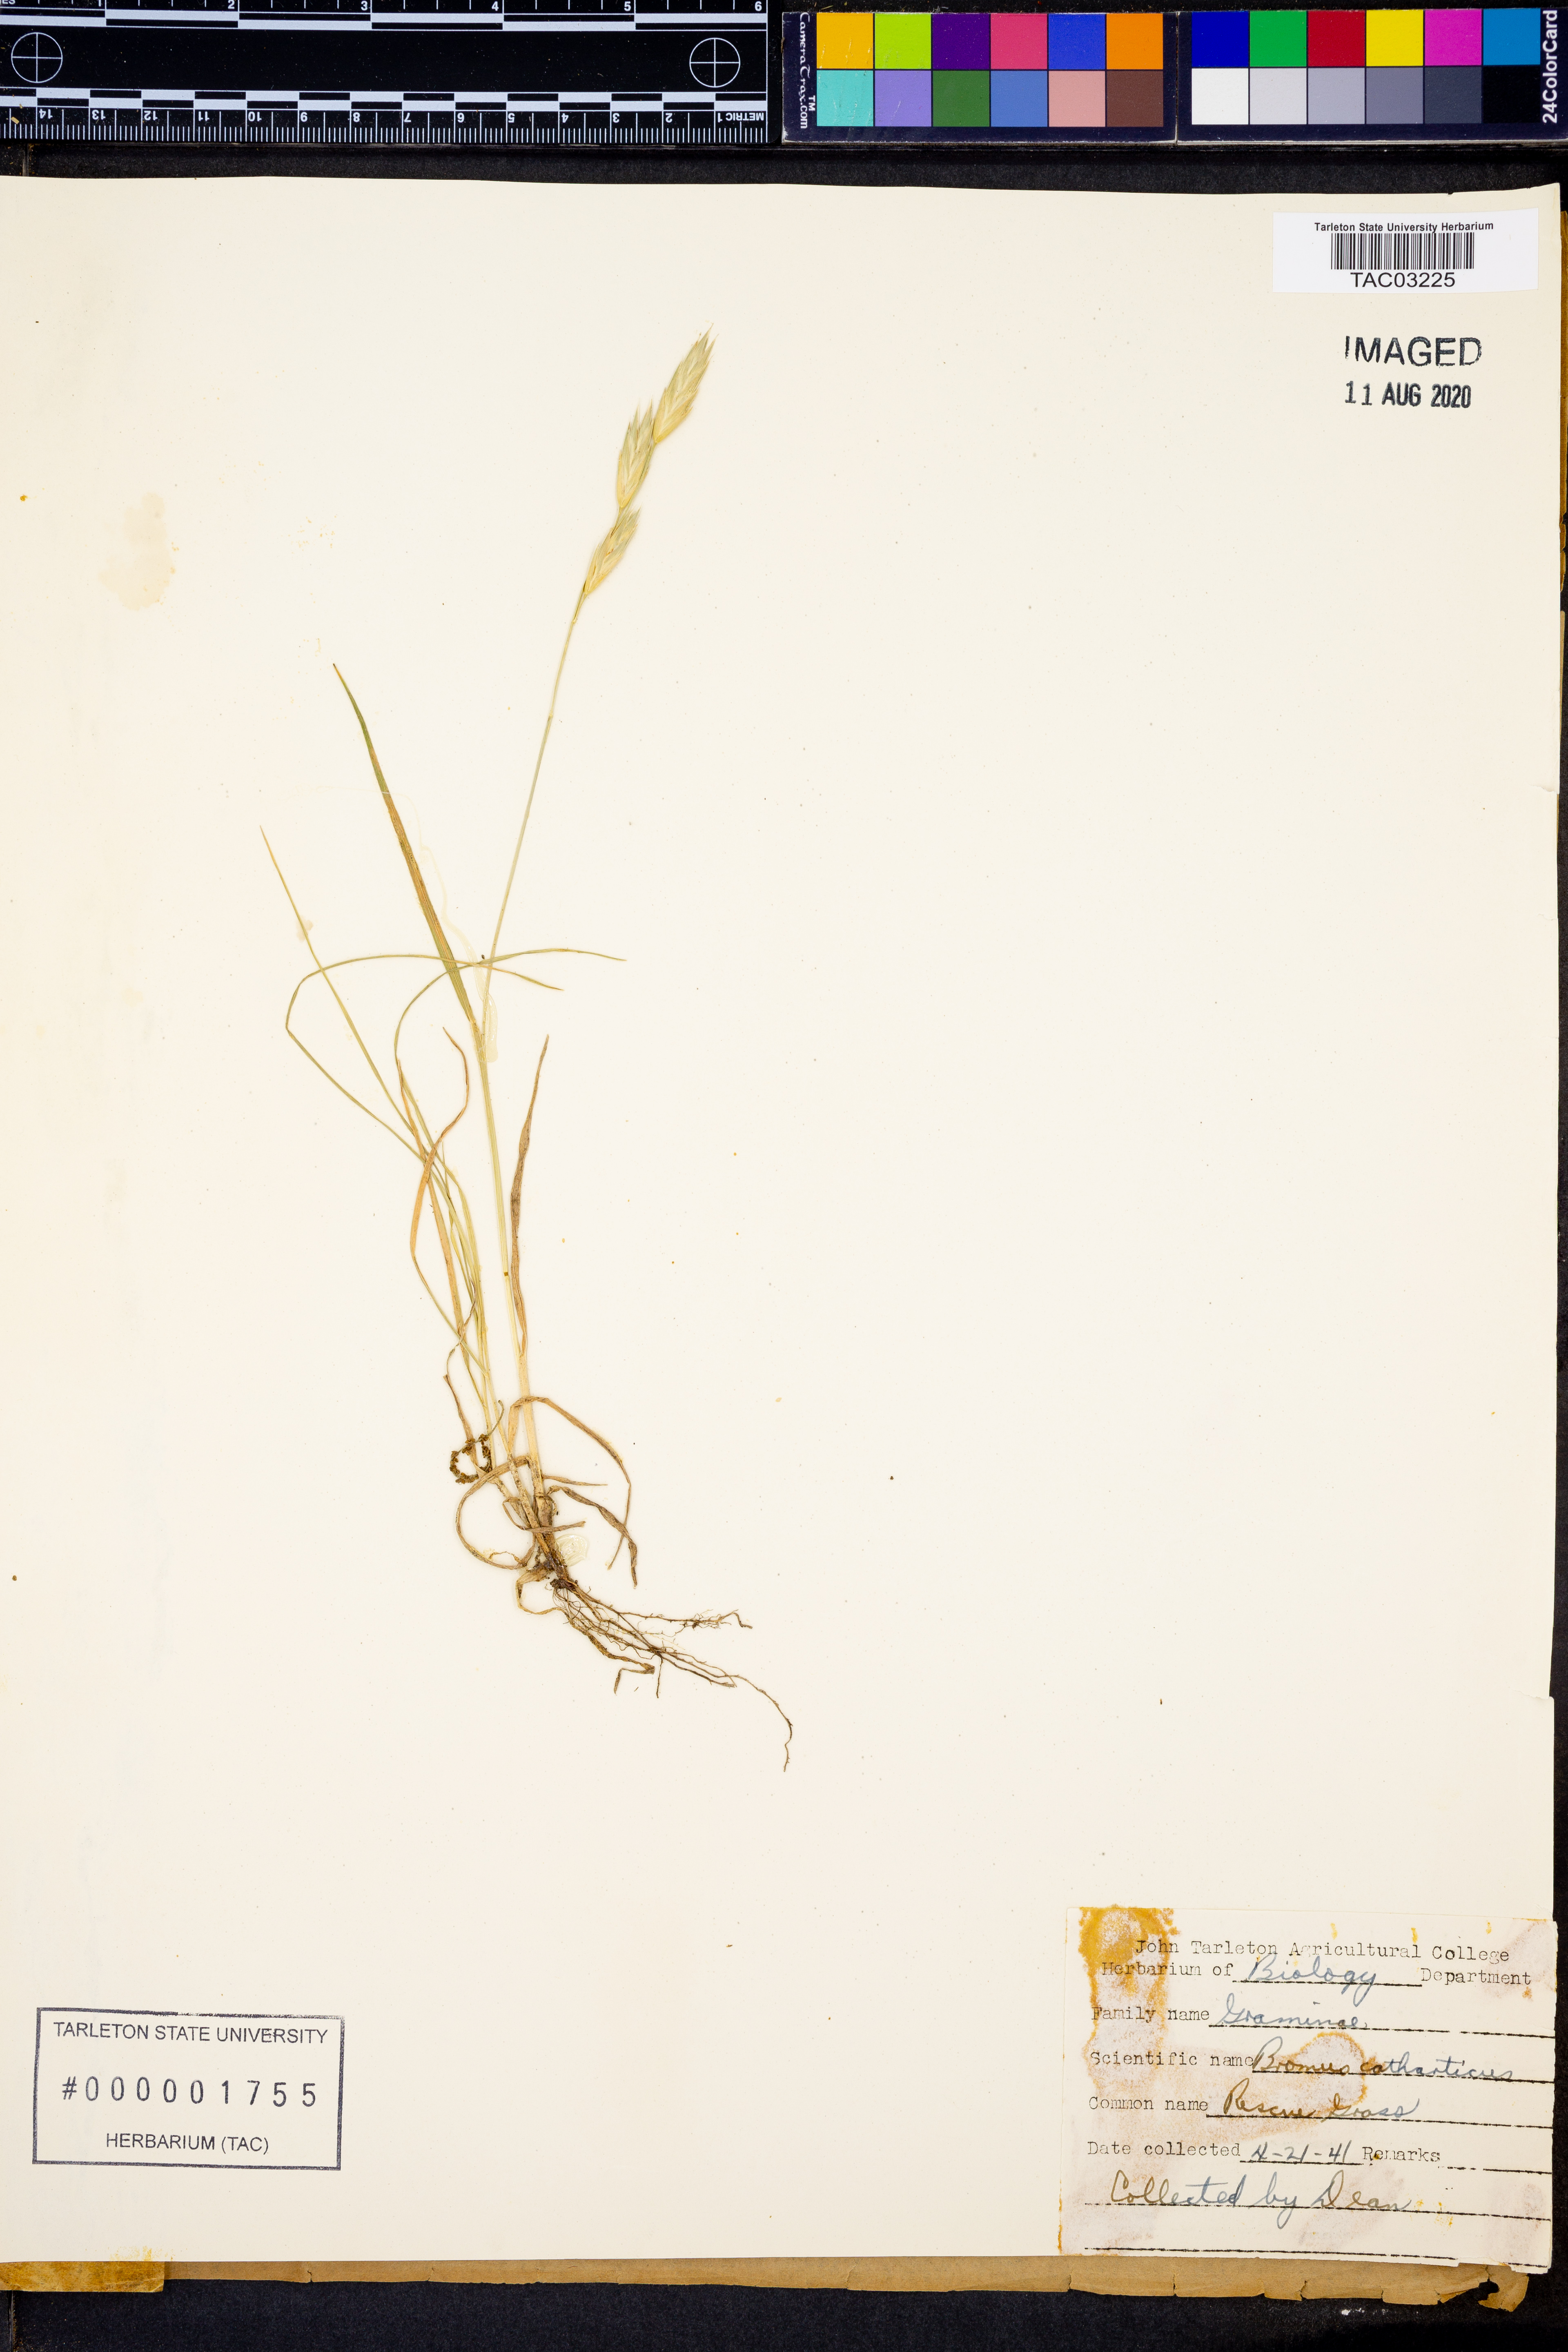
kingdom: Plantae
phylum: Tracheophyta
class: Liliopsida
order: Poales
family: Poaceae
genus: Bromus
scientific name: Bromus catharticus
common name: Rescuegrass
